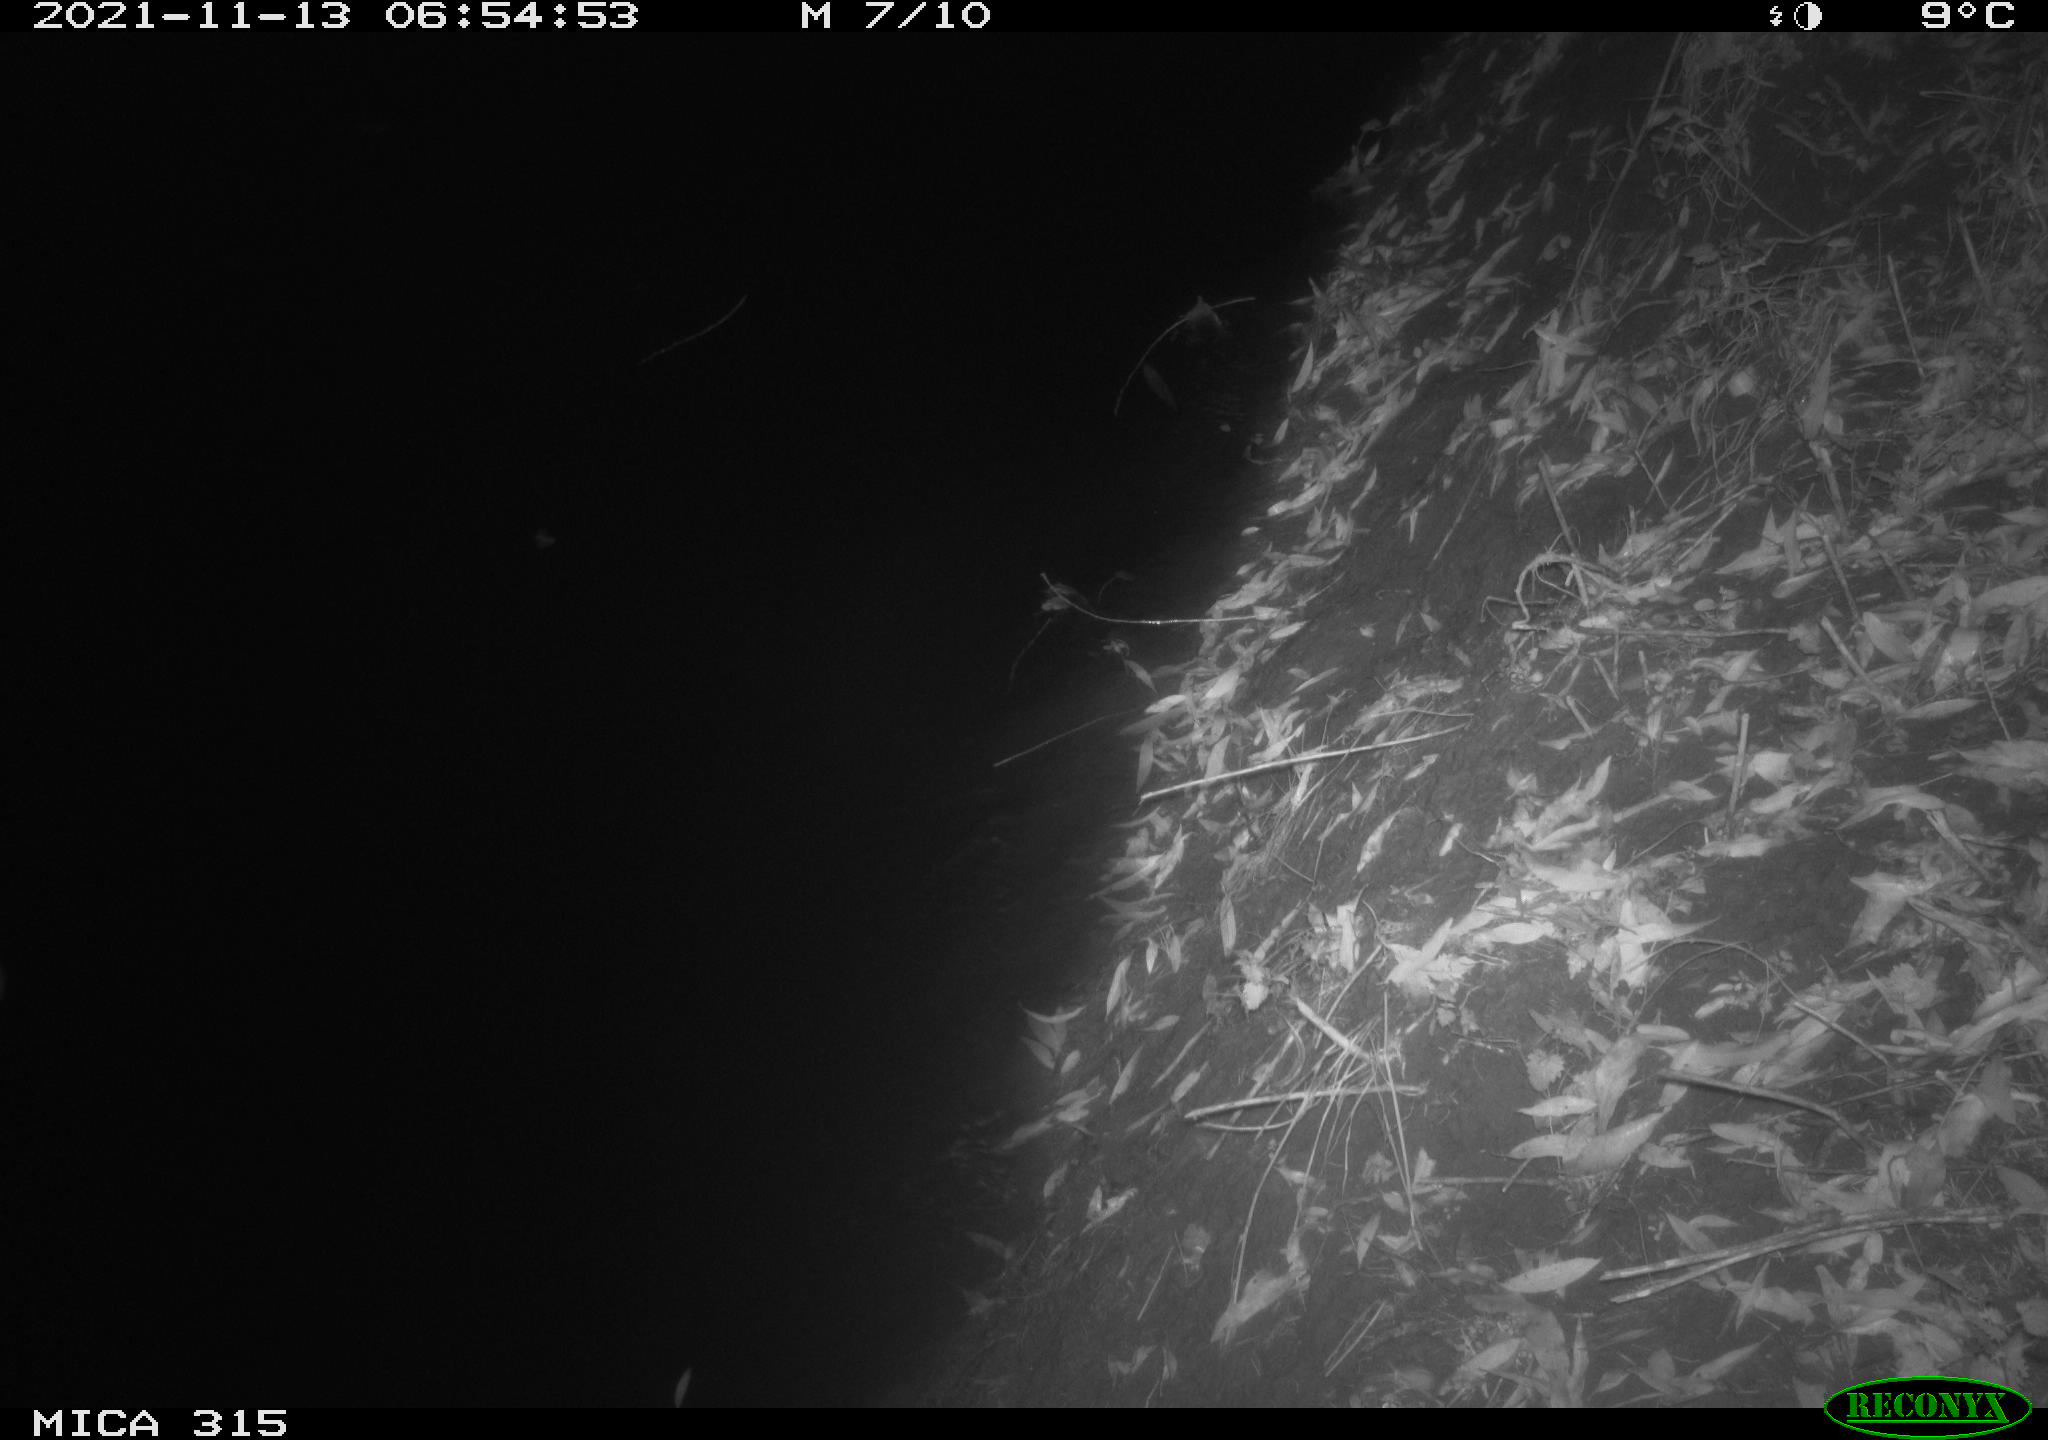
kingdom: Animalia
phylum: Chordata
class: Mammalia
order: Rodentia
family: Cricetidae
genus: Myodes
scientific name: Myodes glareolus
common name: Bank vole
